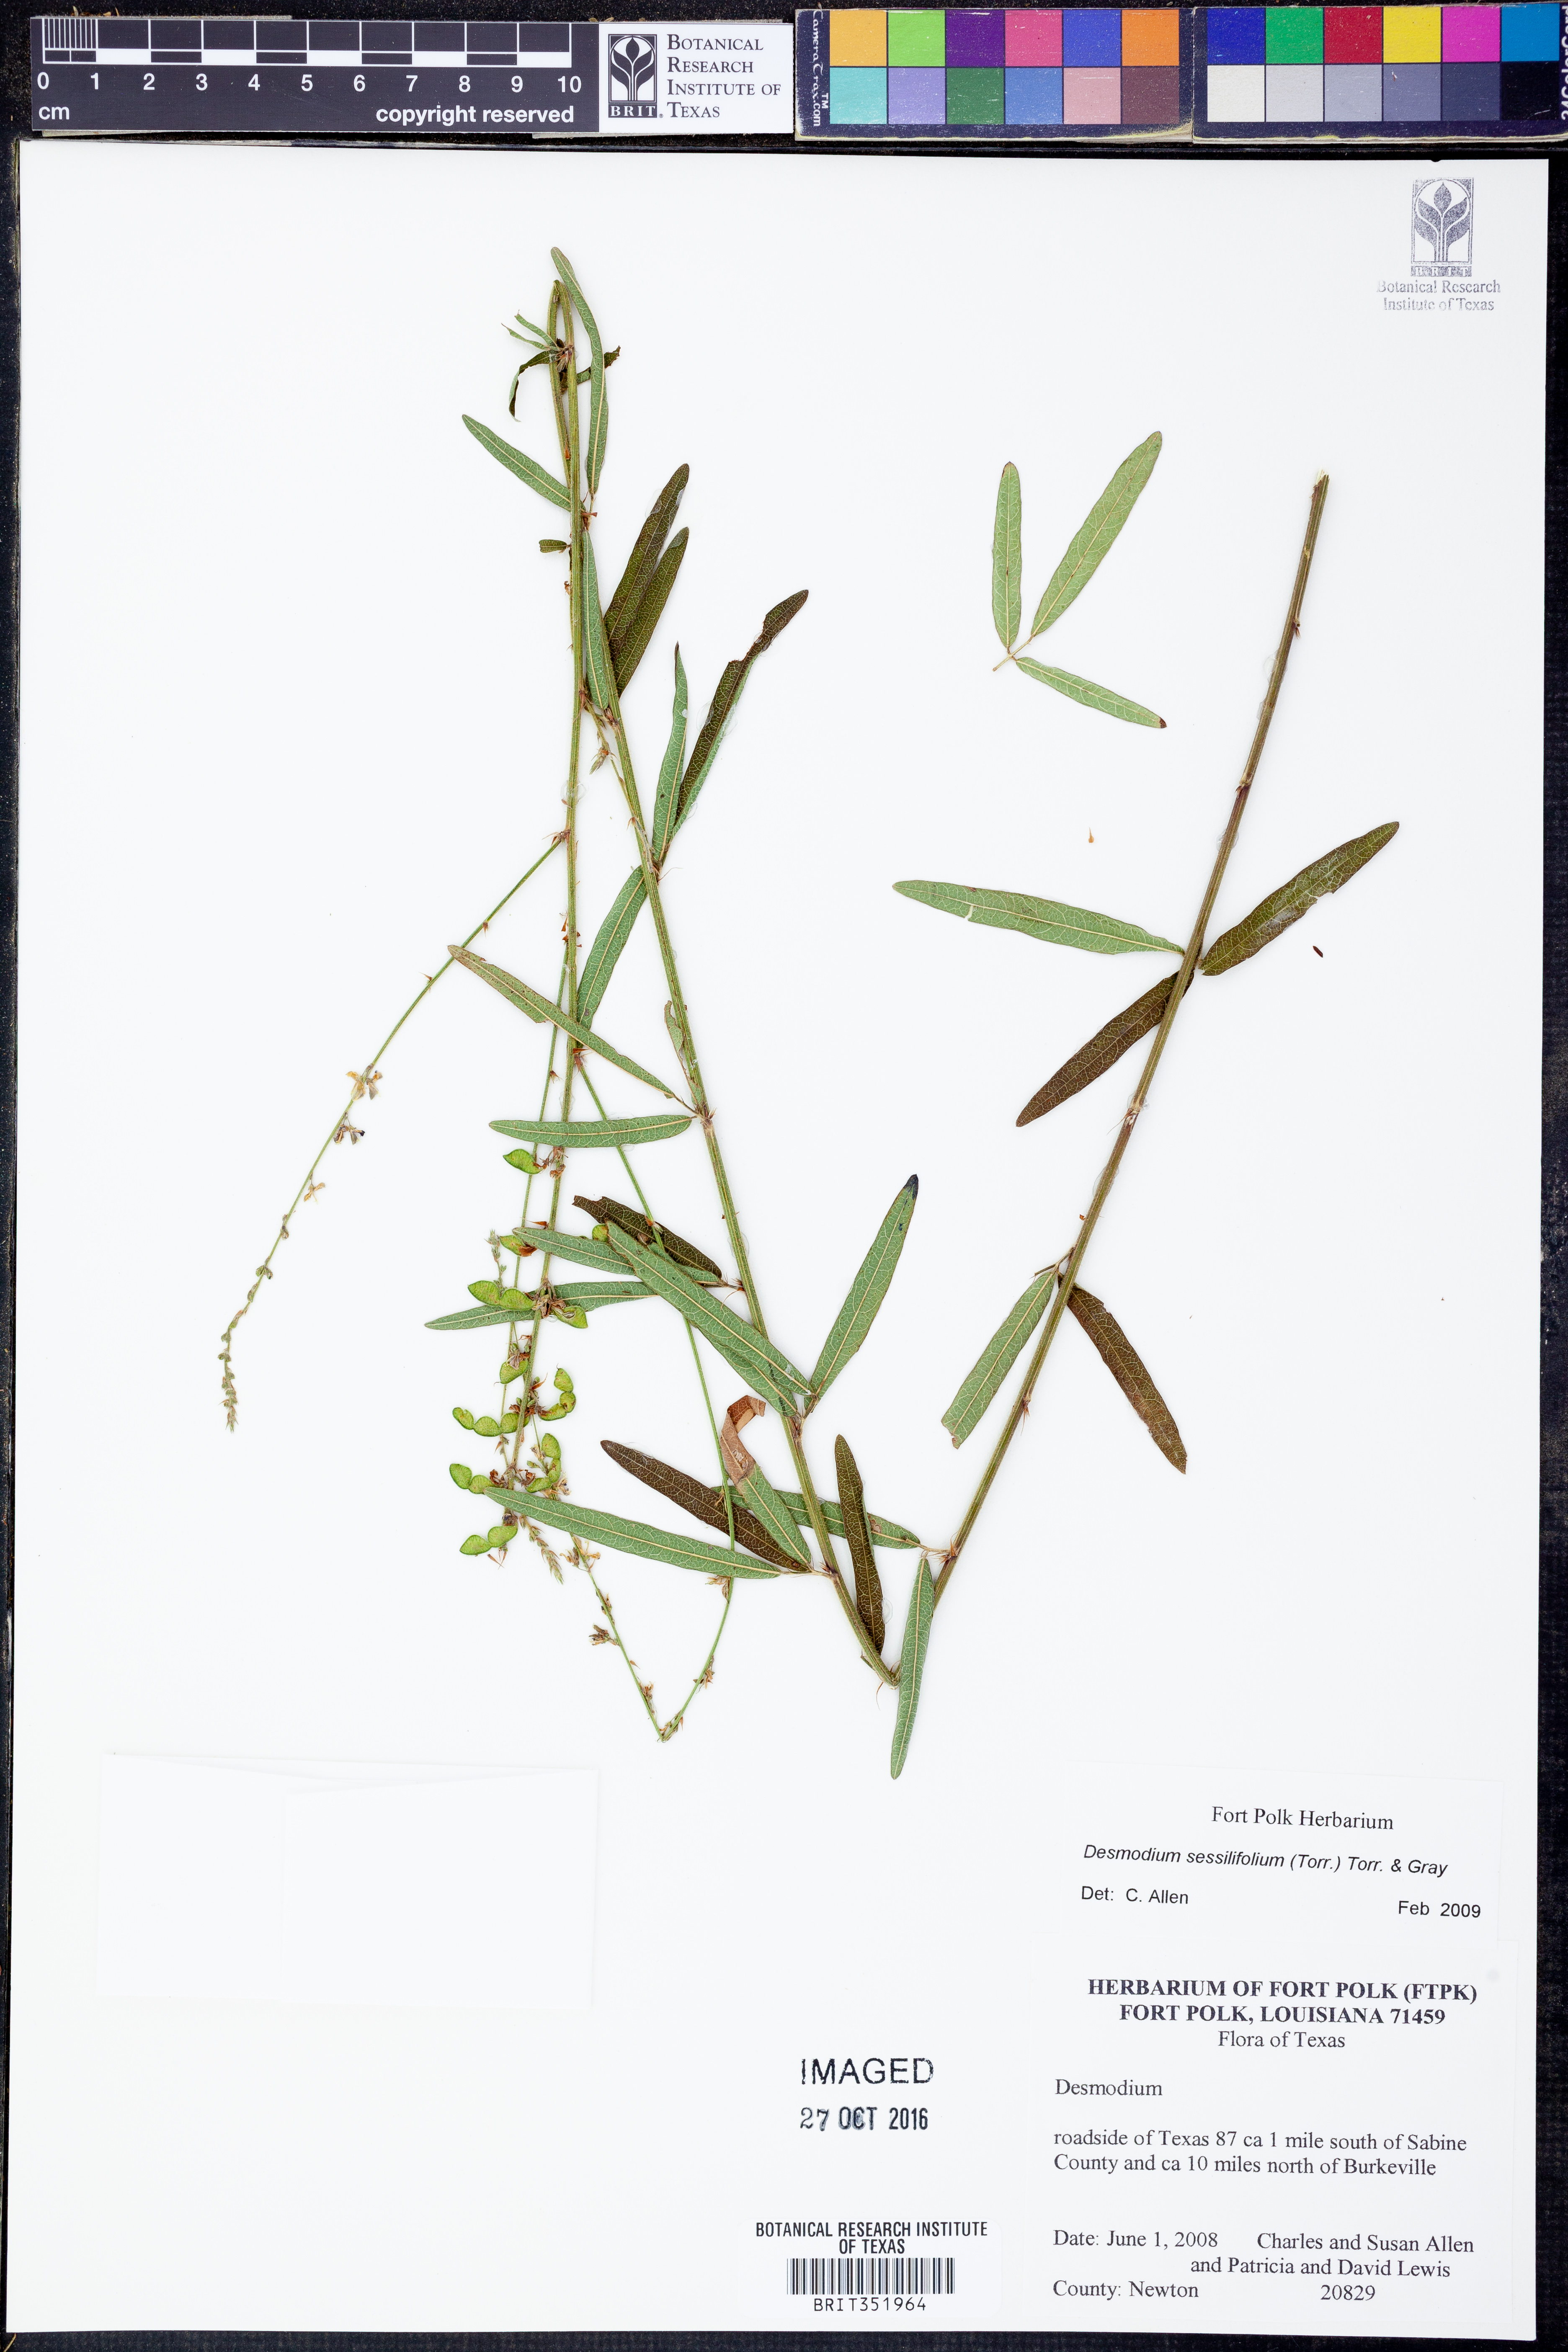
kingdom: Plantae
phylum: Tracheophyta
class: Magnoliopsida
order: Fabales
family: Fabaceae
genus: Desmodium
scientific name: Desmodium sessilifolium
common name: Sessile tick-clover
